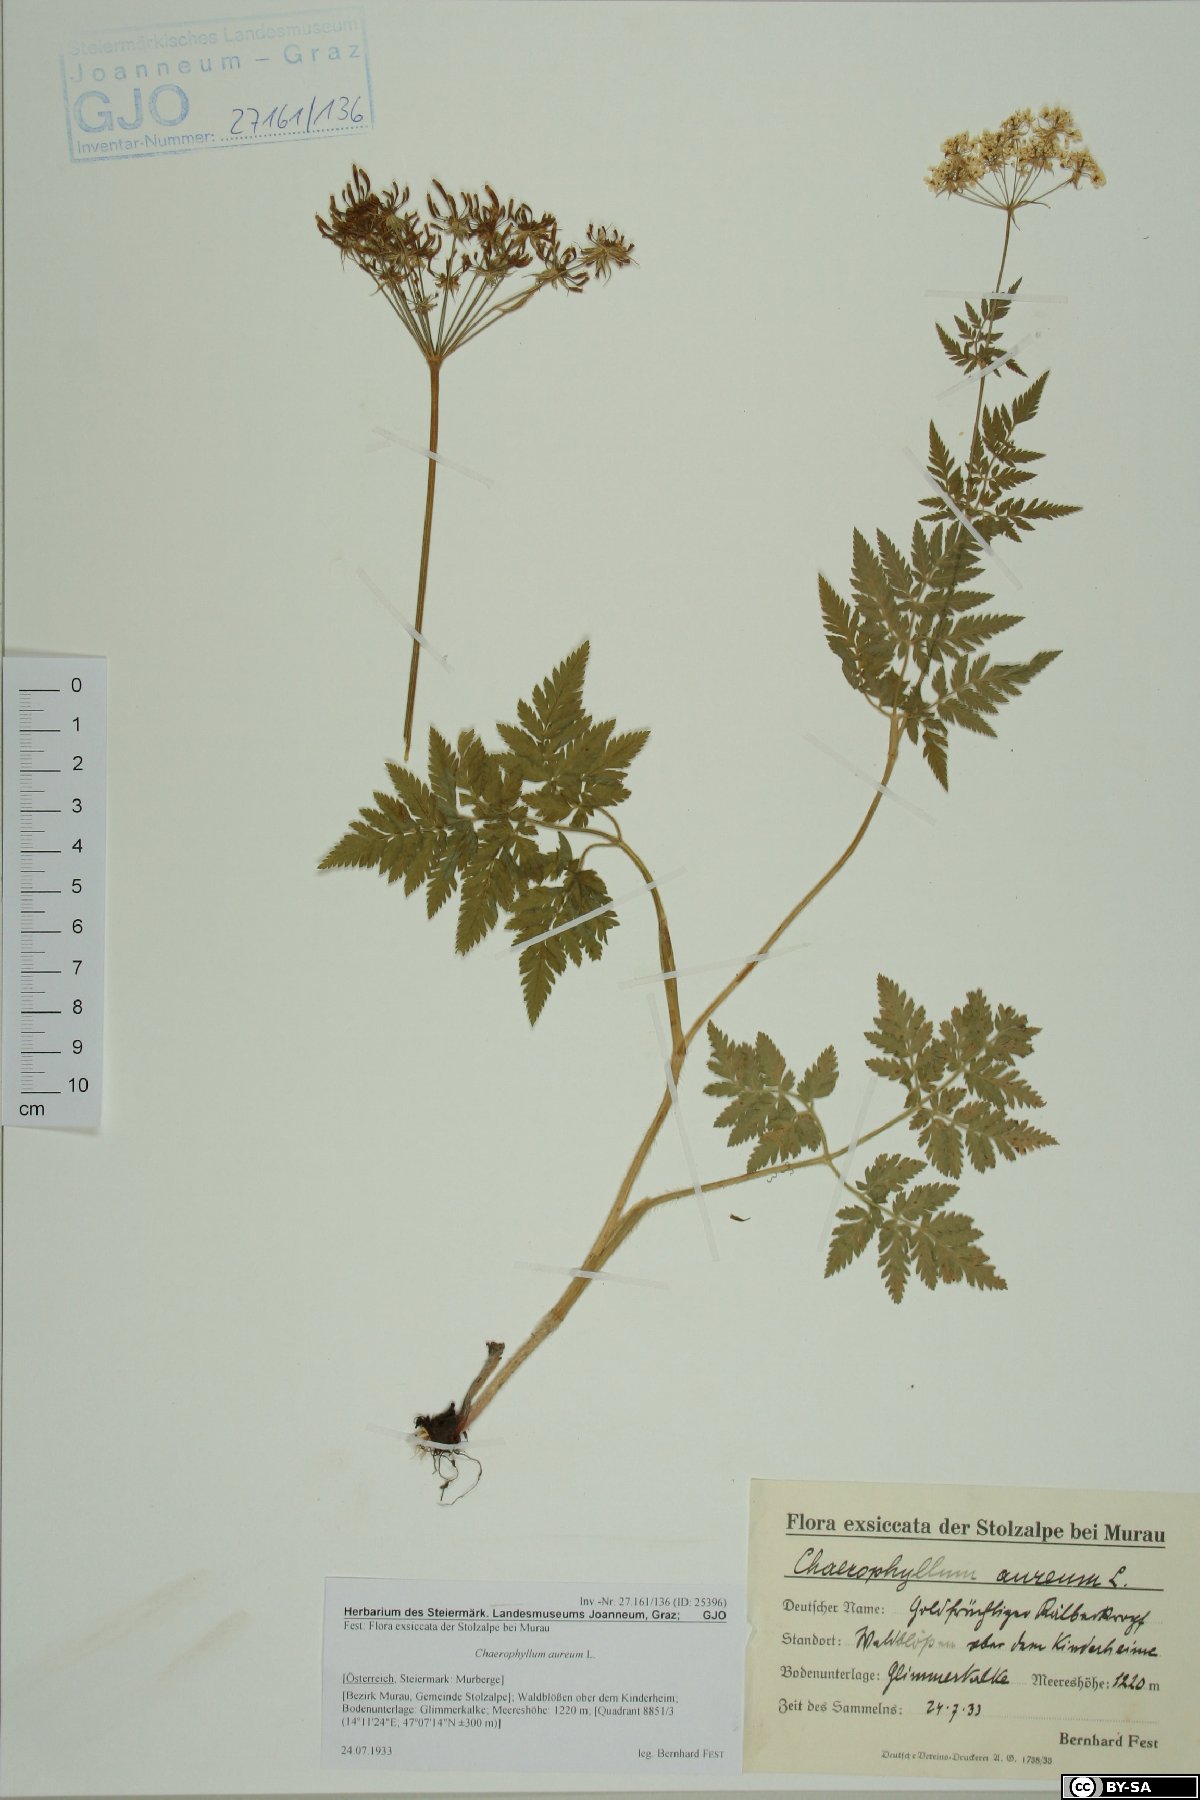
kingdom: Plantae
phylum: Tracheophyta
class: Magnoliopsida
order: Apiales
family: Apiaceae
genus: Chaerophyllum
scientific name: Chaerophyllum aureum
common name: Golden chervil
